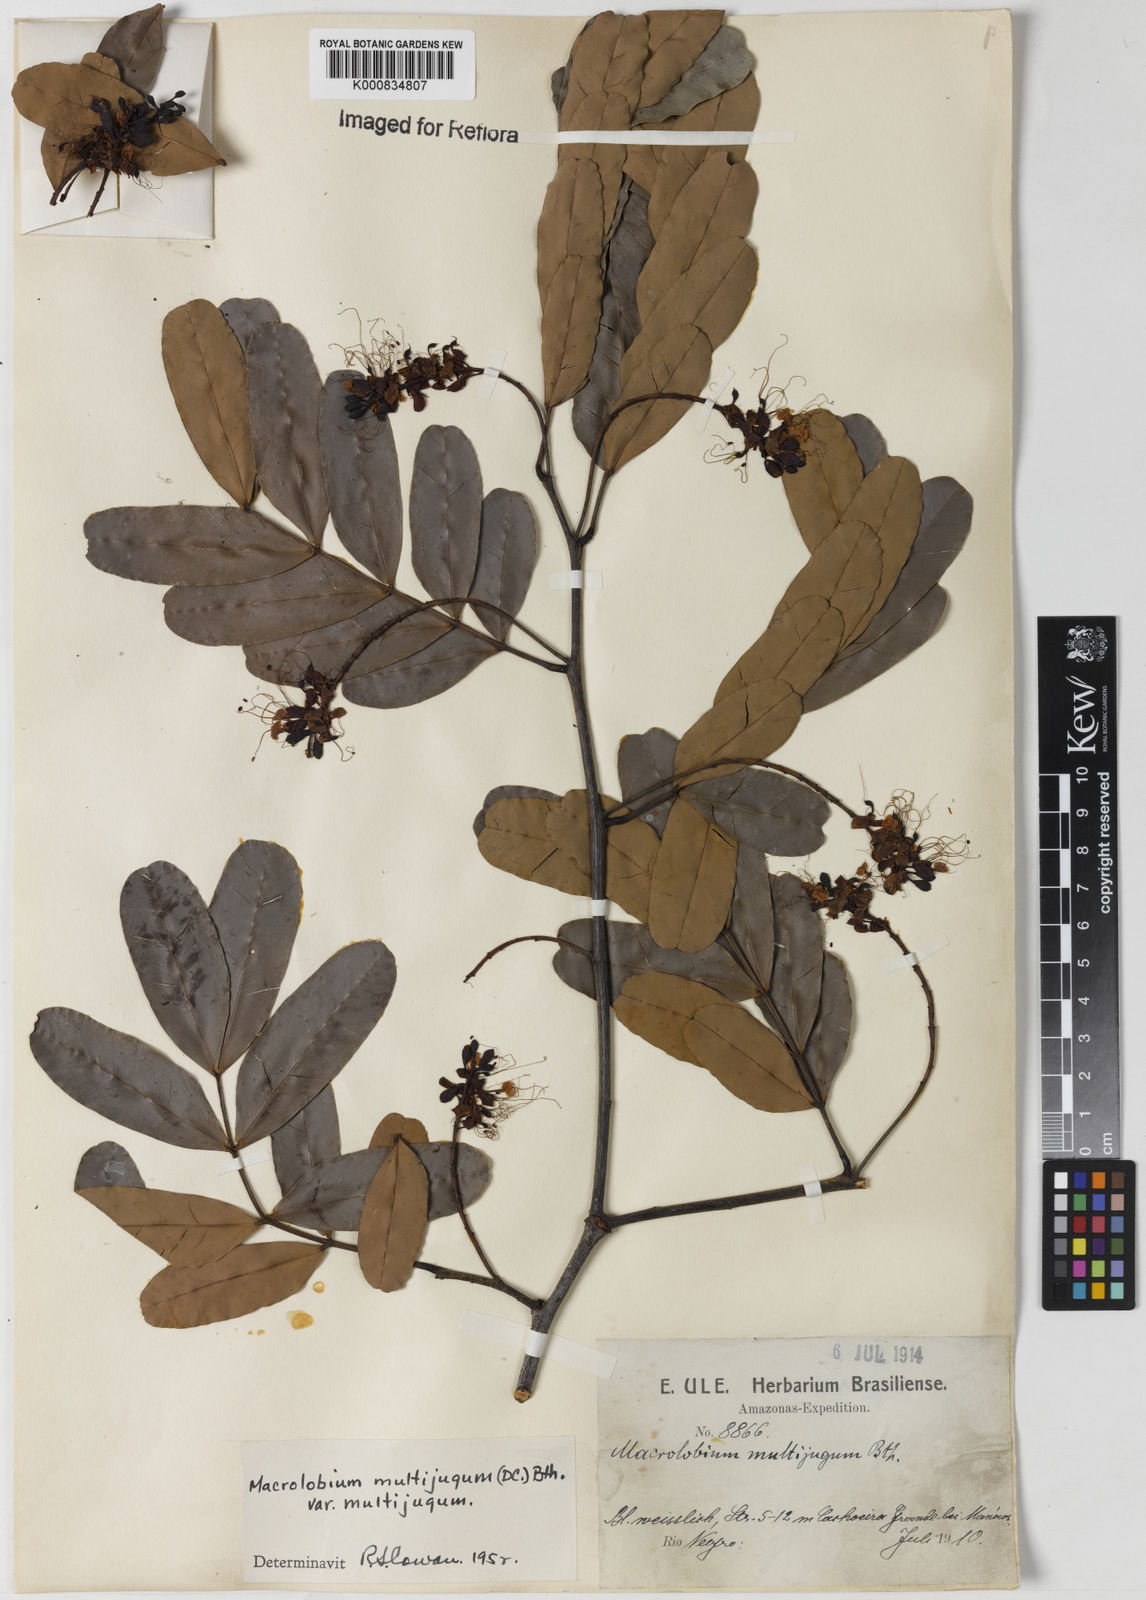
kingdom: Plantae
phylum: Tracheophyta
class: Magnoliopsida
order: Fabales
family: Fabaceae
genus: Macrolobium
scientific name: Macrolobium multijugum
